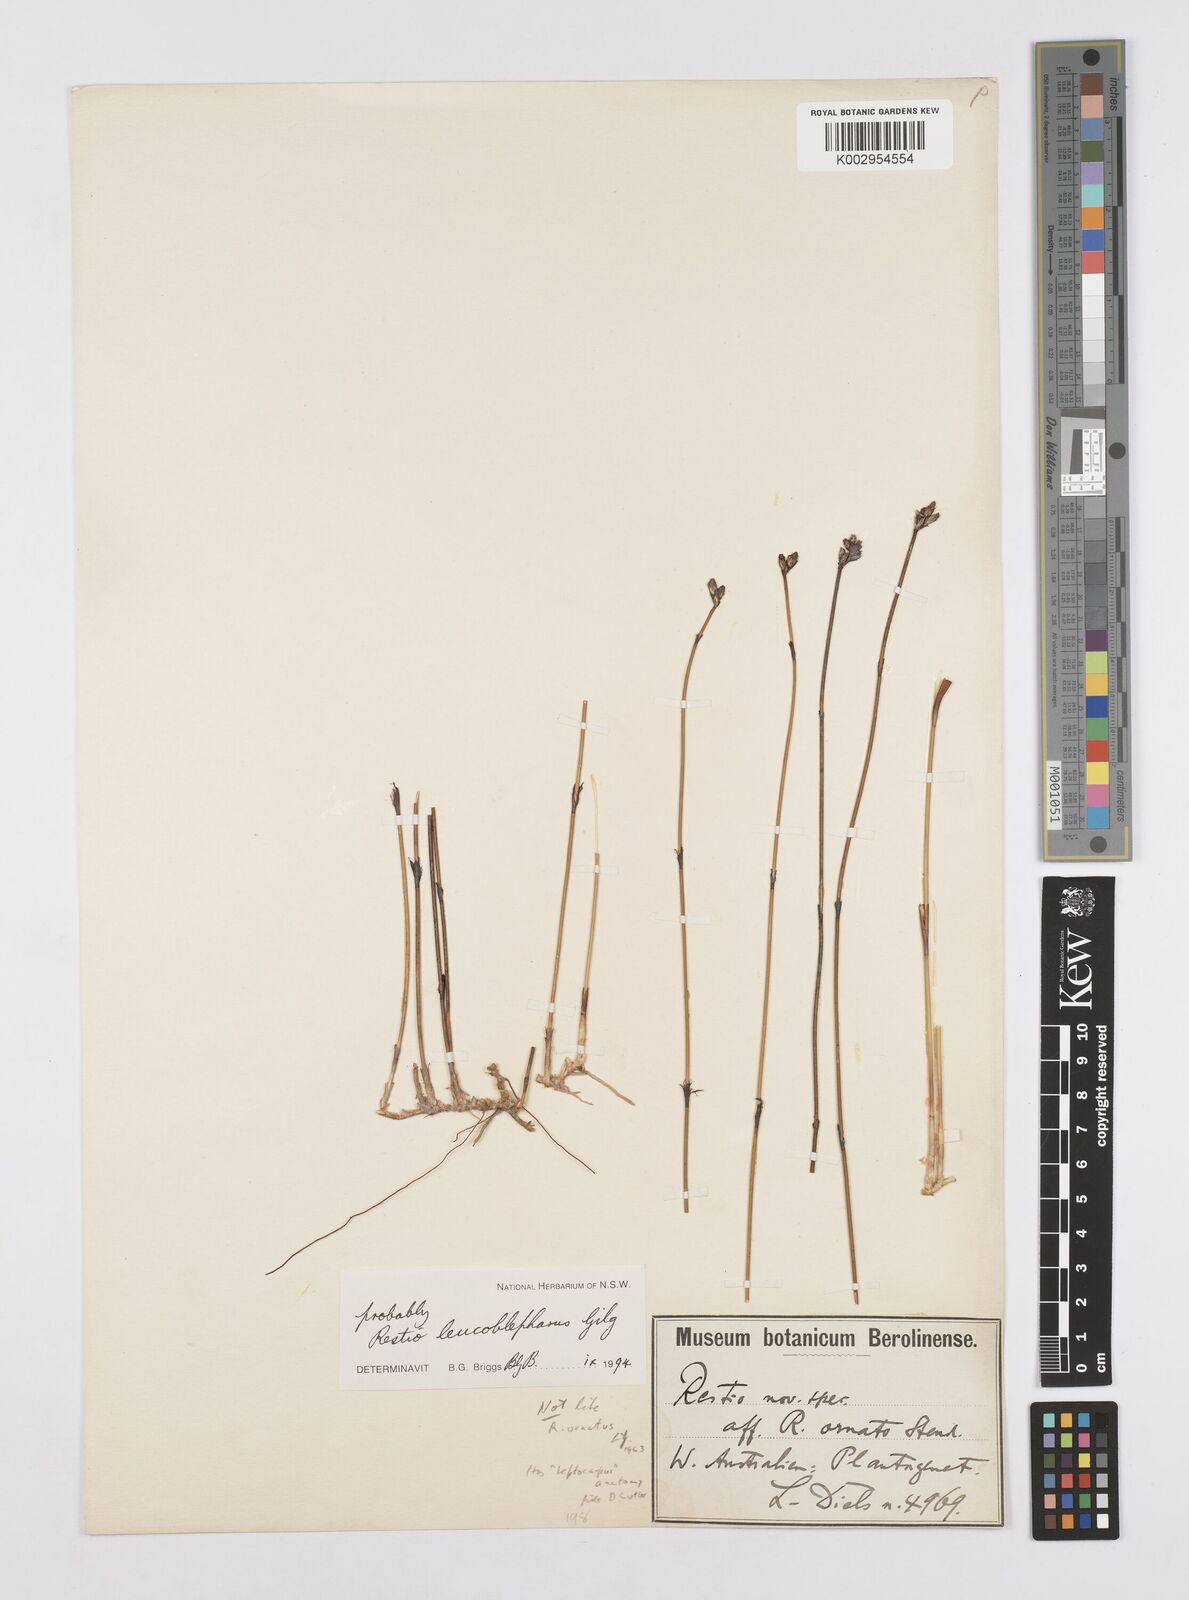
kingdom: Plantae
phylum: Tracheophyta
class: Liliopsida
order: Poales
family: Restionaceae
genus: Chordifex
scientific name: Chordifex leucoblepharus
